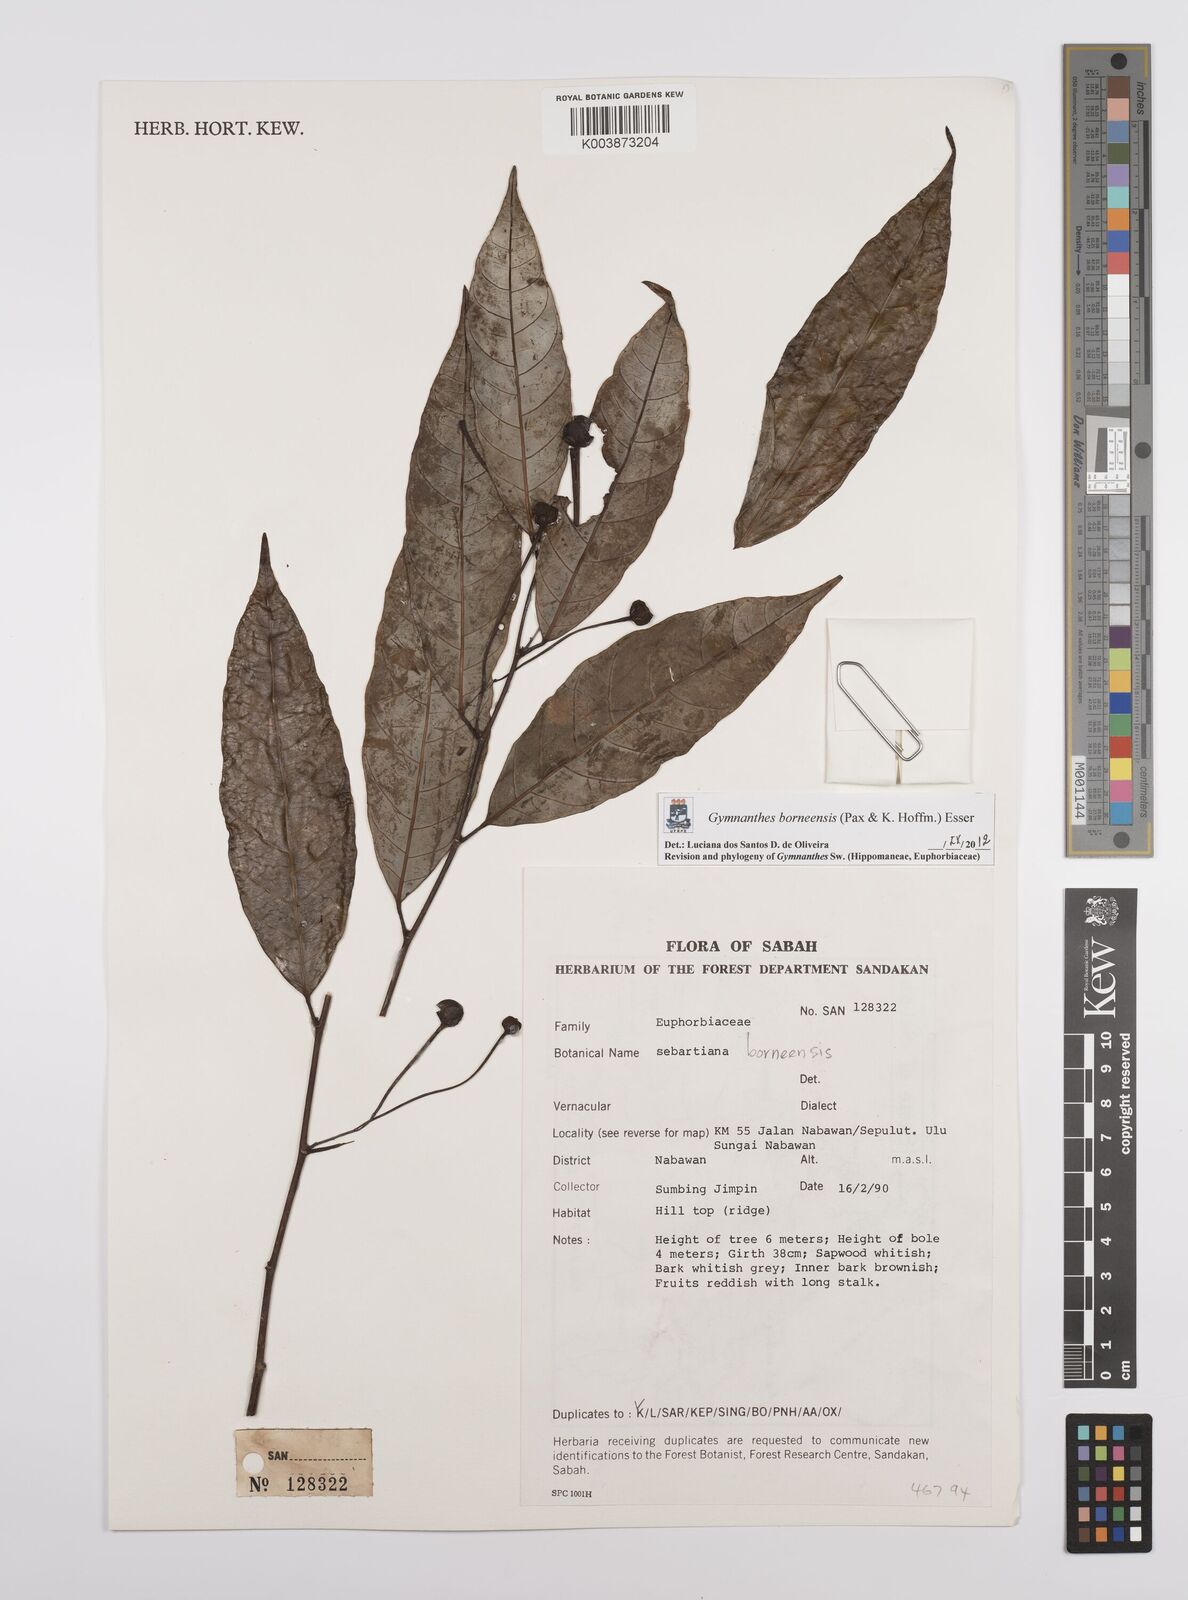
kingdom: Plantae
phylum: Tracheophyta
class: Magnoliopsida
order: Malpighiales
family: Euphorbiaceae
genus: Gymnanthes
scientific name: Gymnanthes borneensis
